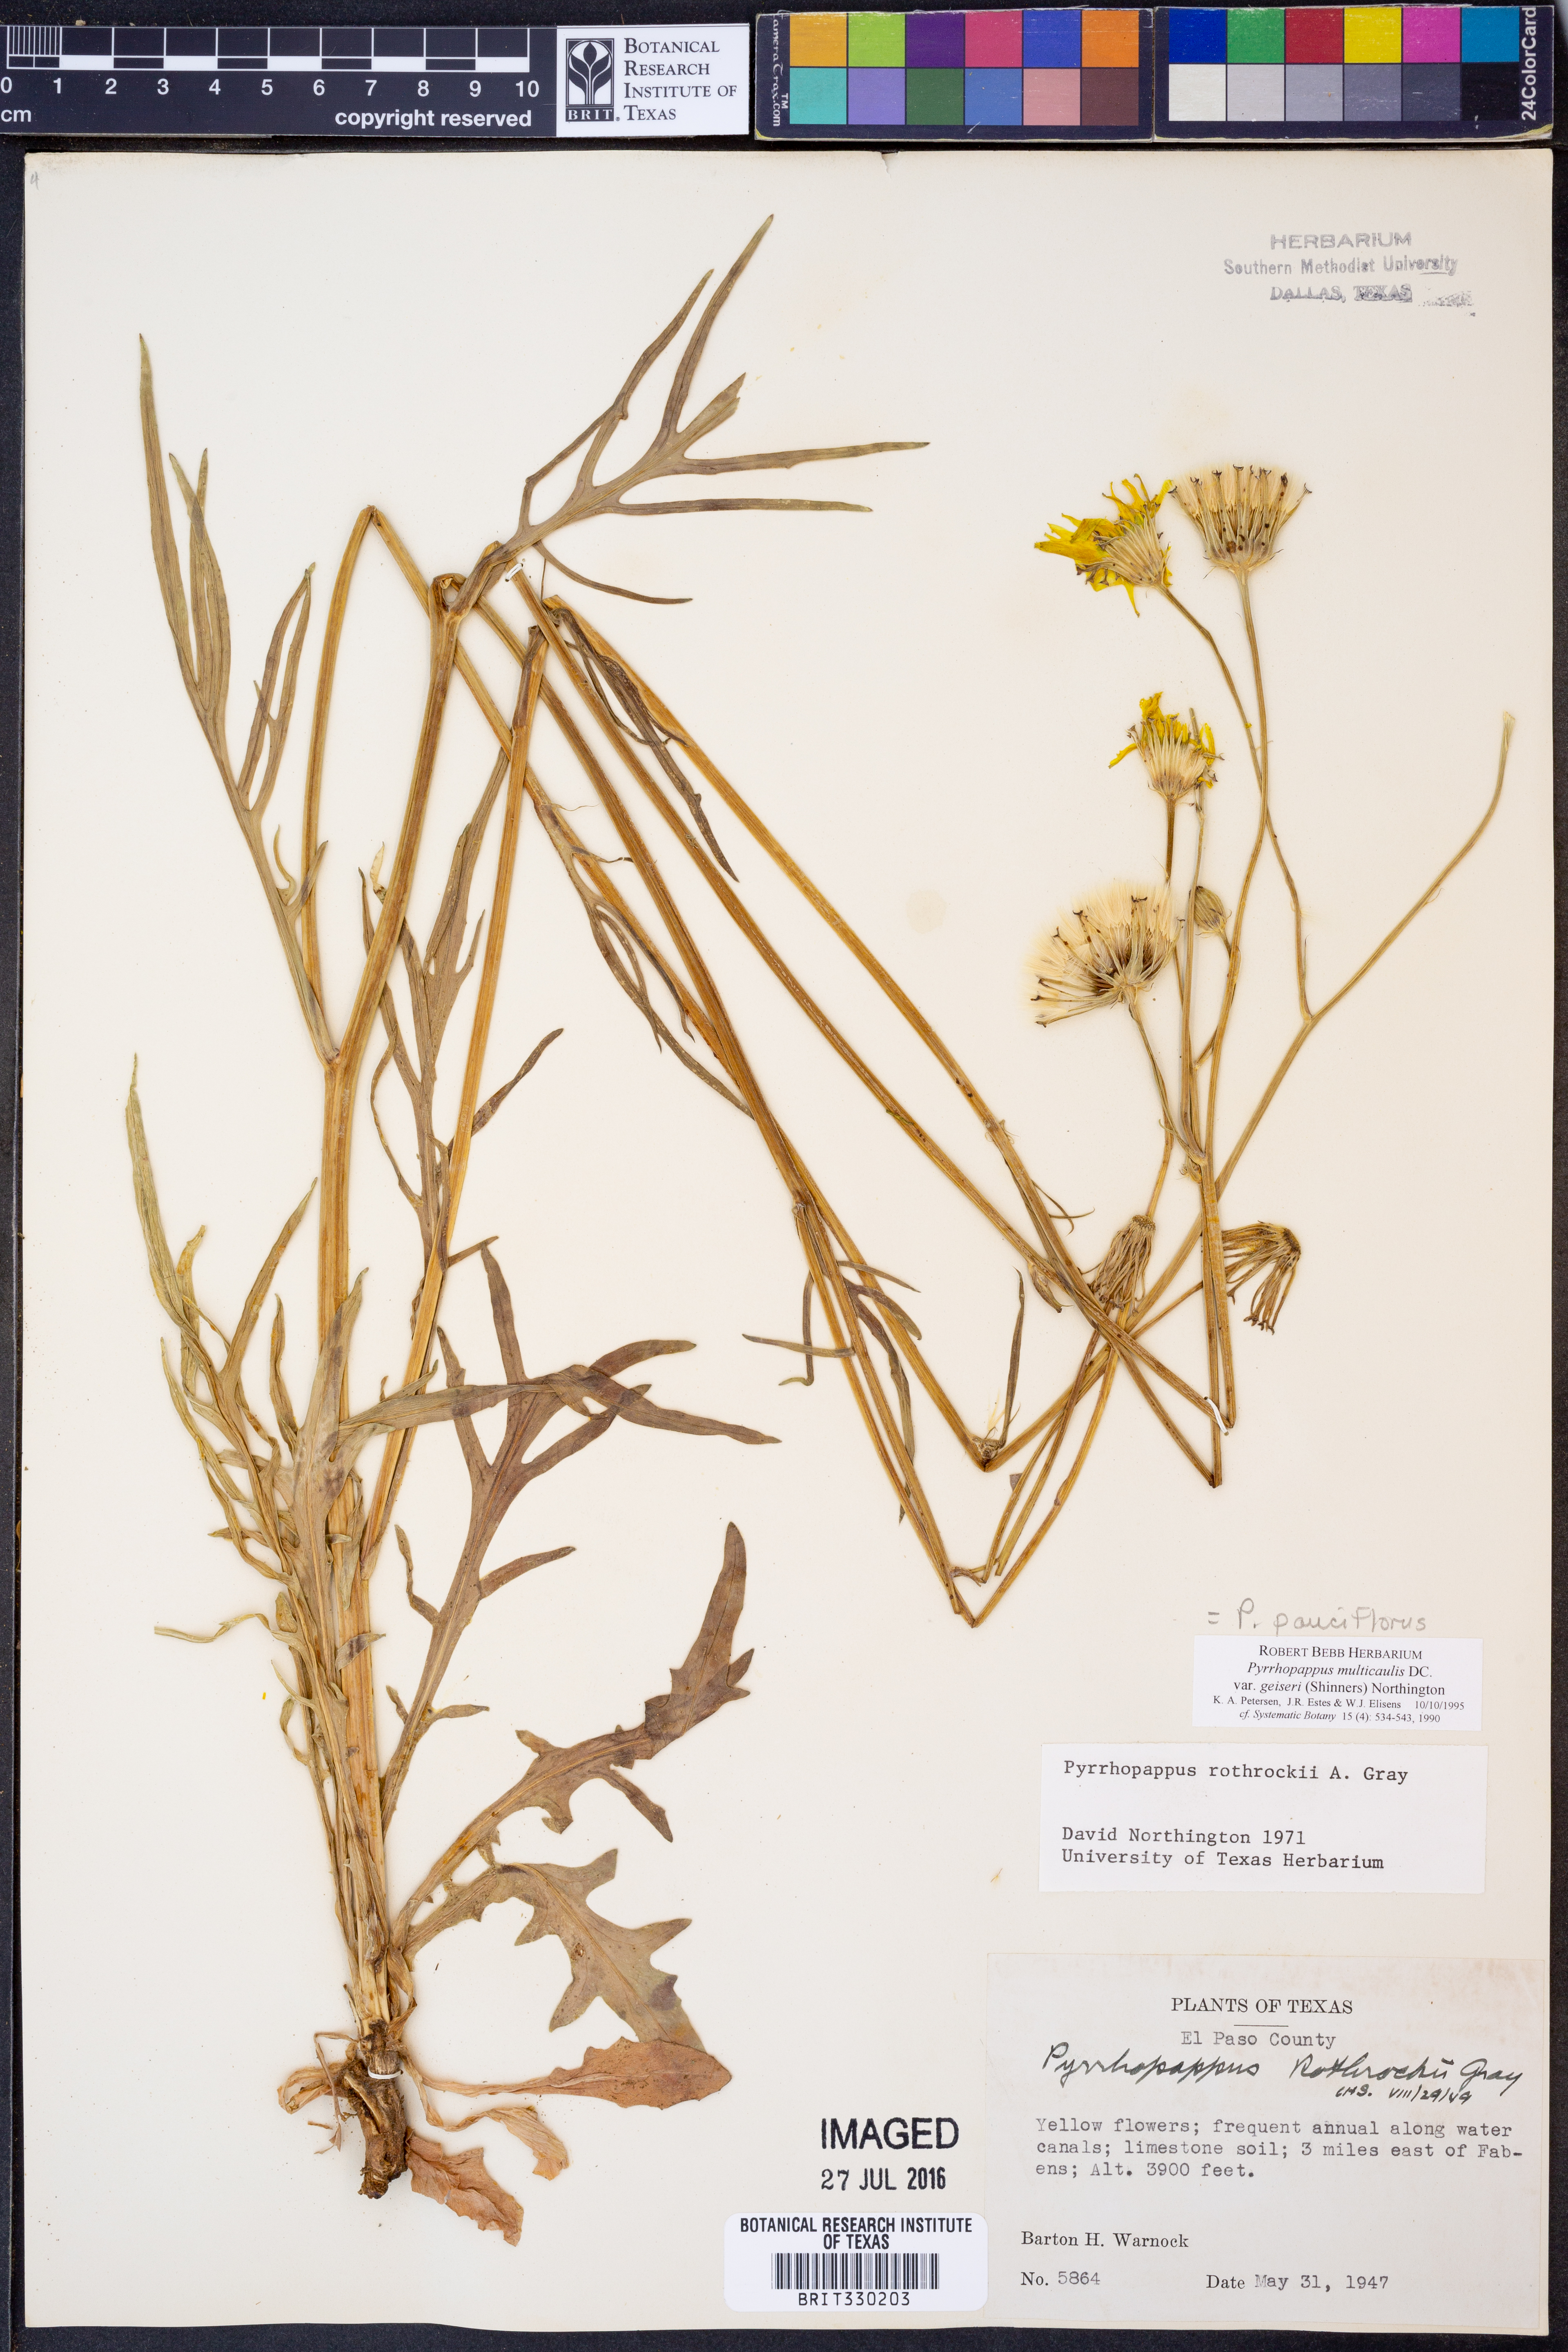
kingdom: Plantae
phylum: Tracheophyta
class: Magnoliopsida
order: Asterales
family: Asteraceae
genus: Pyrrhopappus
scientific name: Pyrrhopappus pauciflorus
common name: Texas false dandelion
